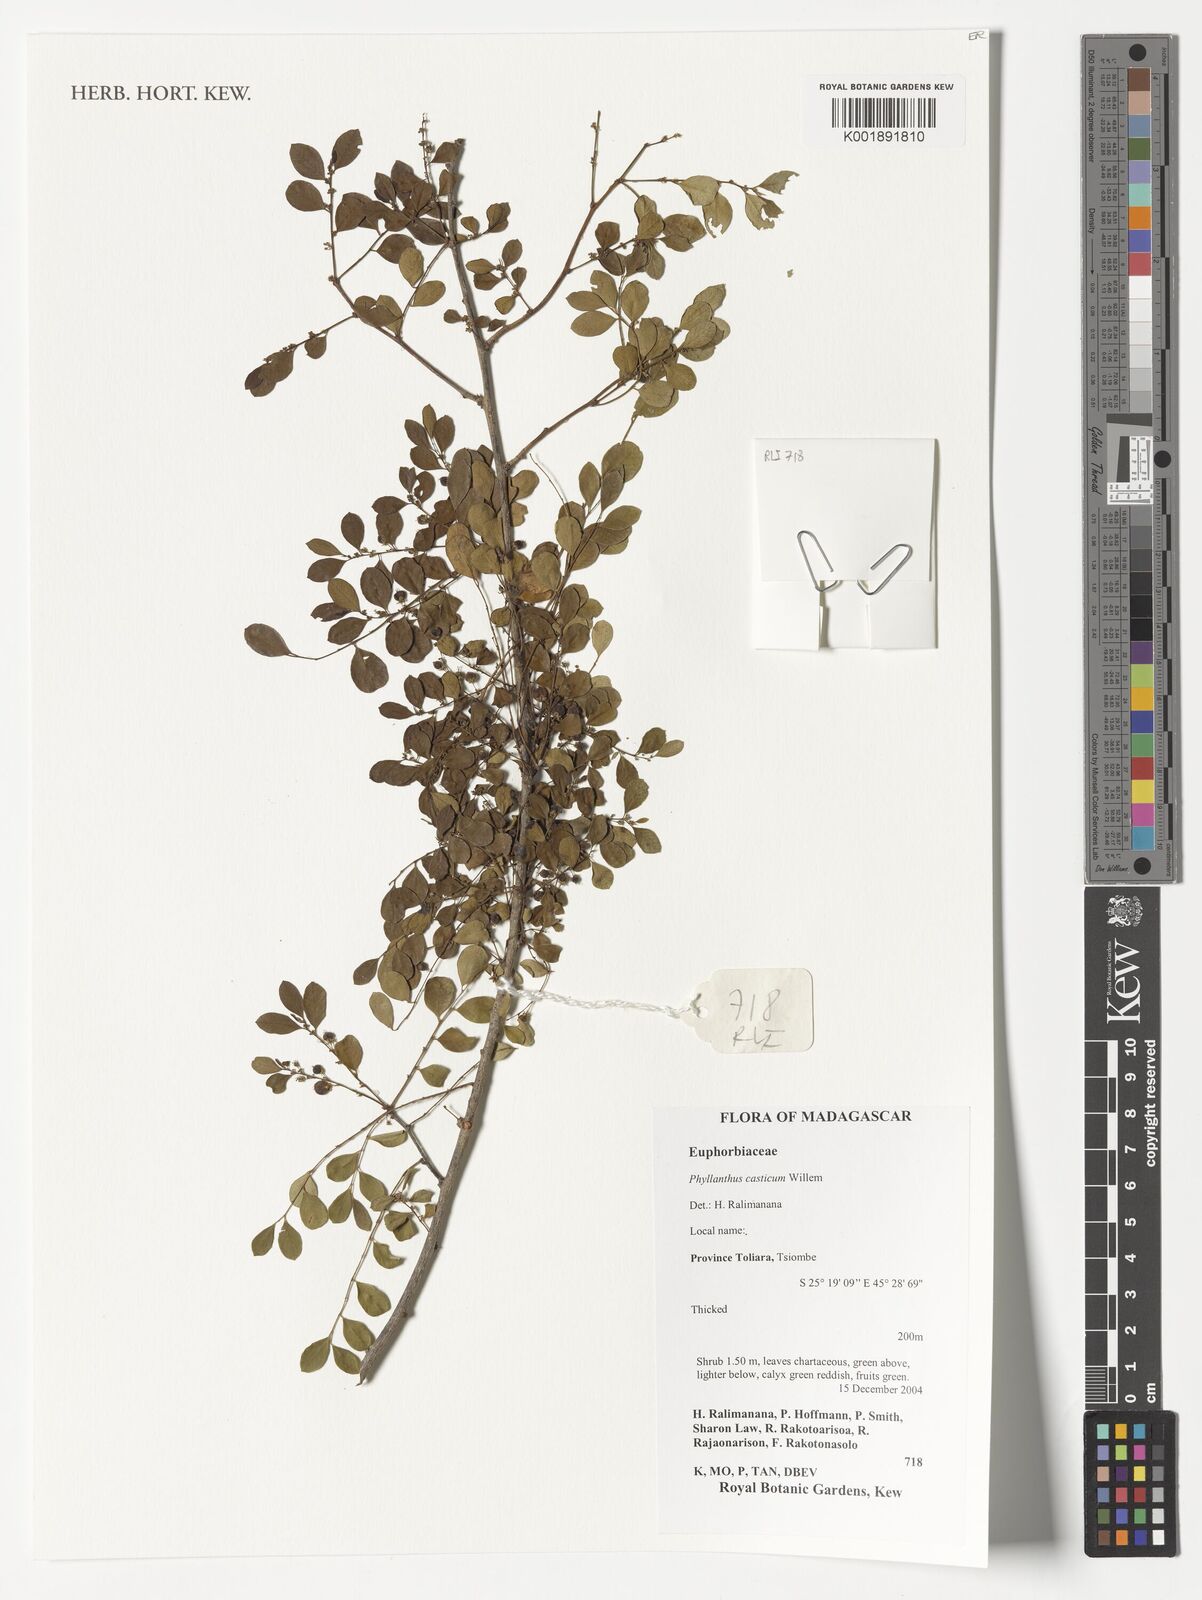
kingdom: Plantae
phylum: Tracheophyta
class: Magnoliopsida
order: Malpighiales
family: Phyllanthaceae
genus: Phyllanthus
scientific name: Phyllanthus casticum
